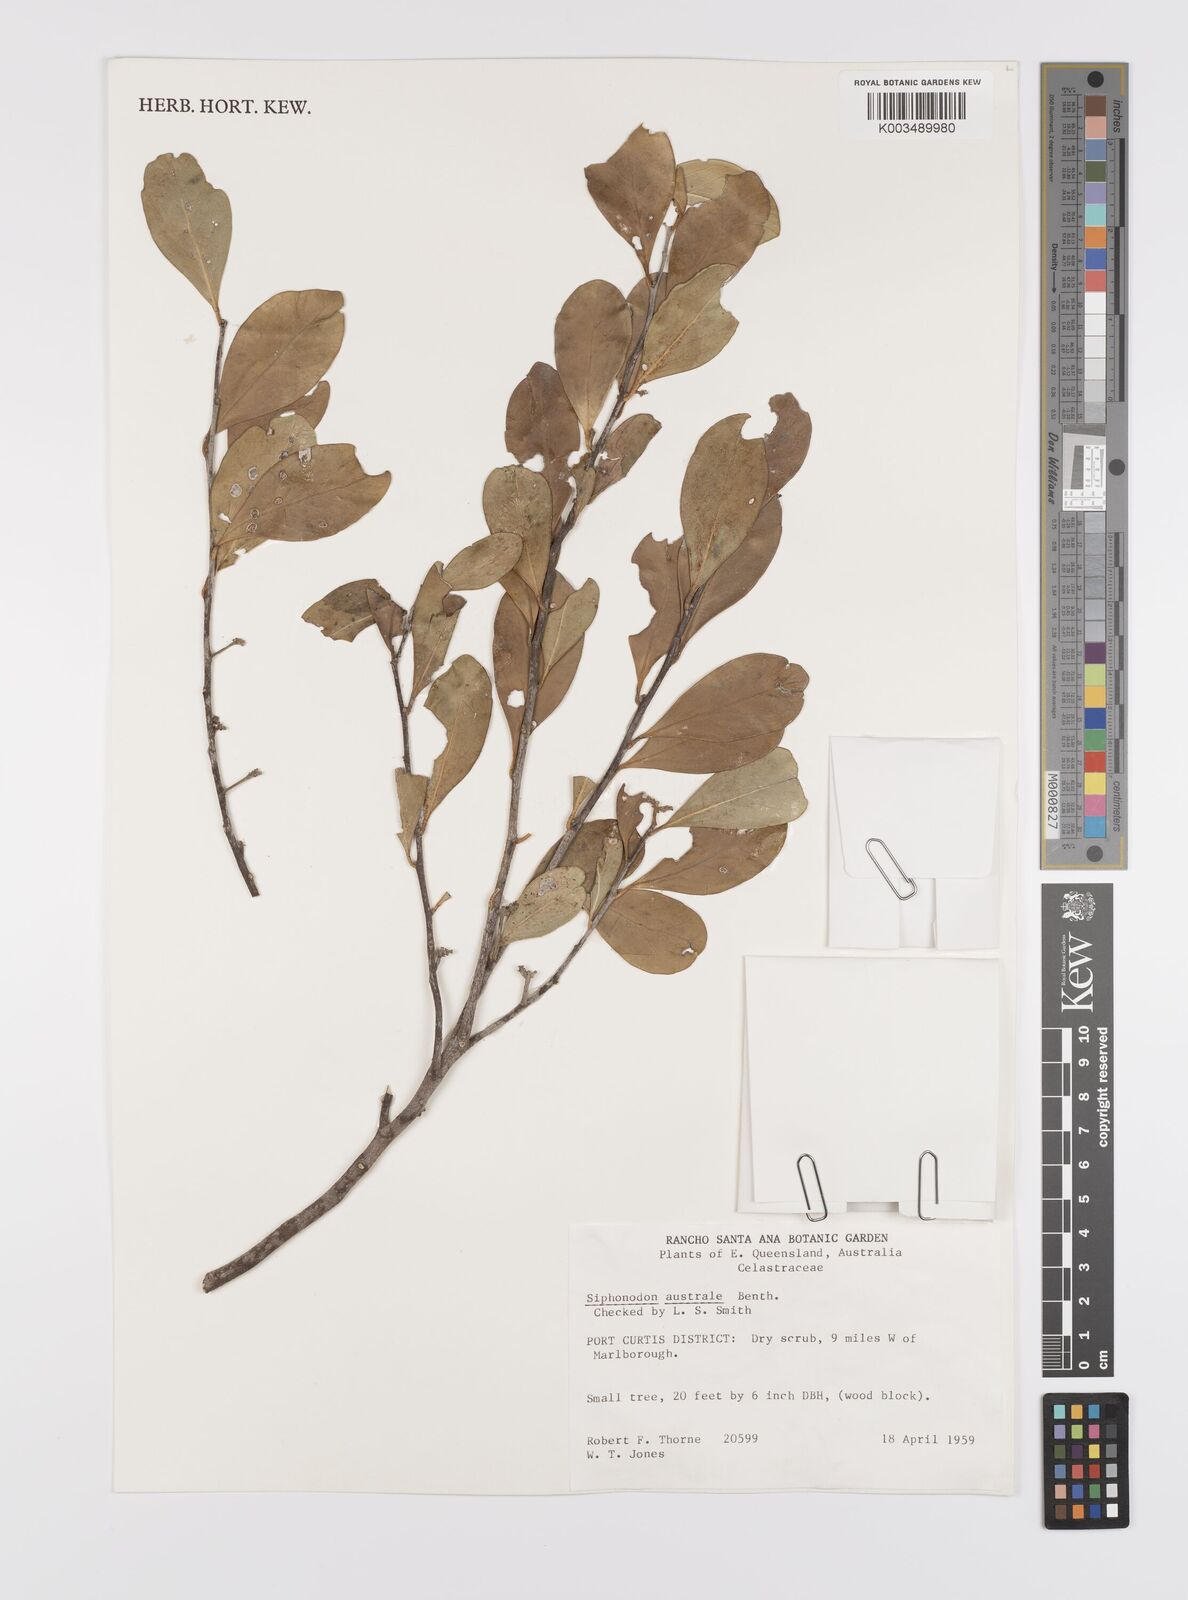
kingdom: Plantae
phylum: Tracheophyta
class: Magnoliopsida
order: Celastrales
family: Celastraceae
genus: Siphonodon
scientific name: Siphonodon australis
